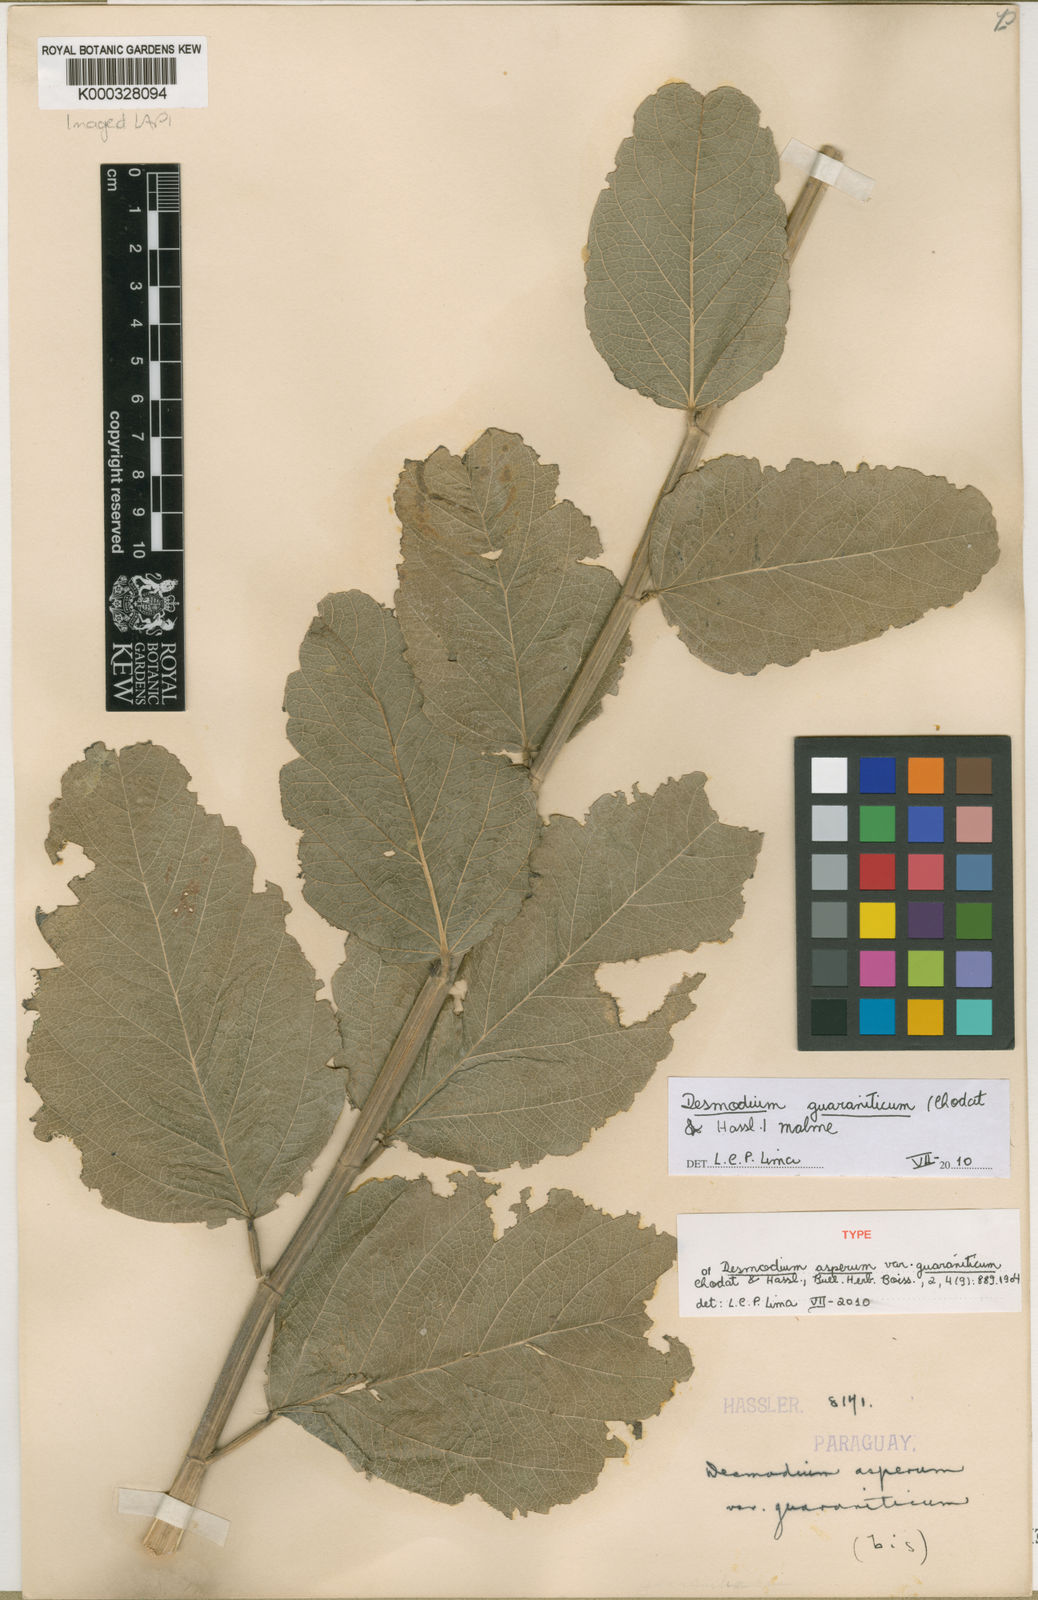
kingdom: Plantae
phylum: Tracheophyta
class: Magnoliopsida
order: Fabales
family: Fabaceae
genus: Desmodium
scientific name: Desmodium guaraniticum
